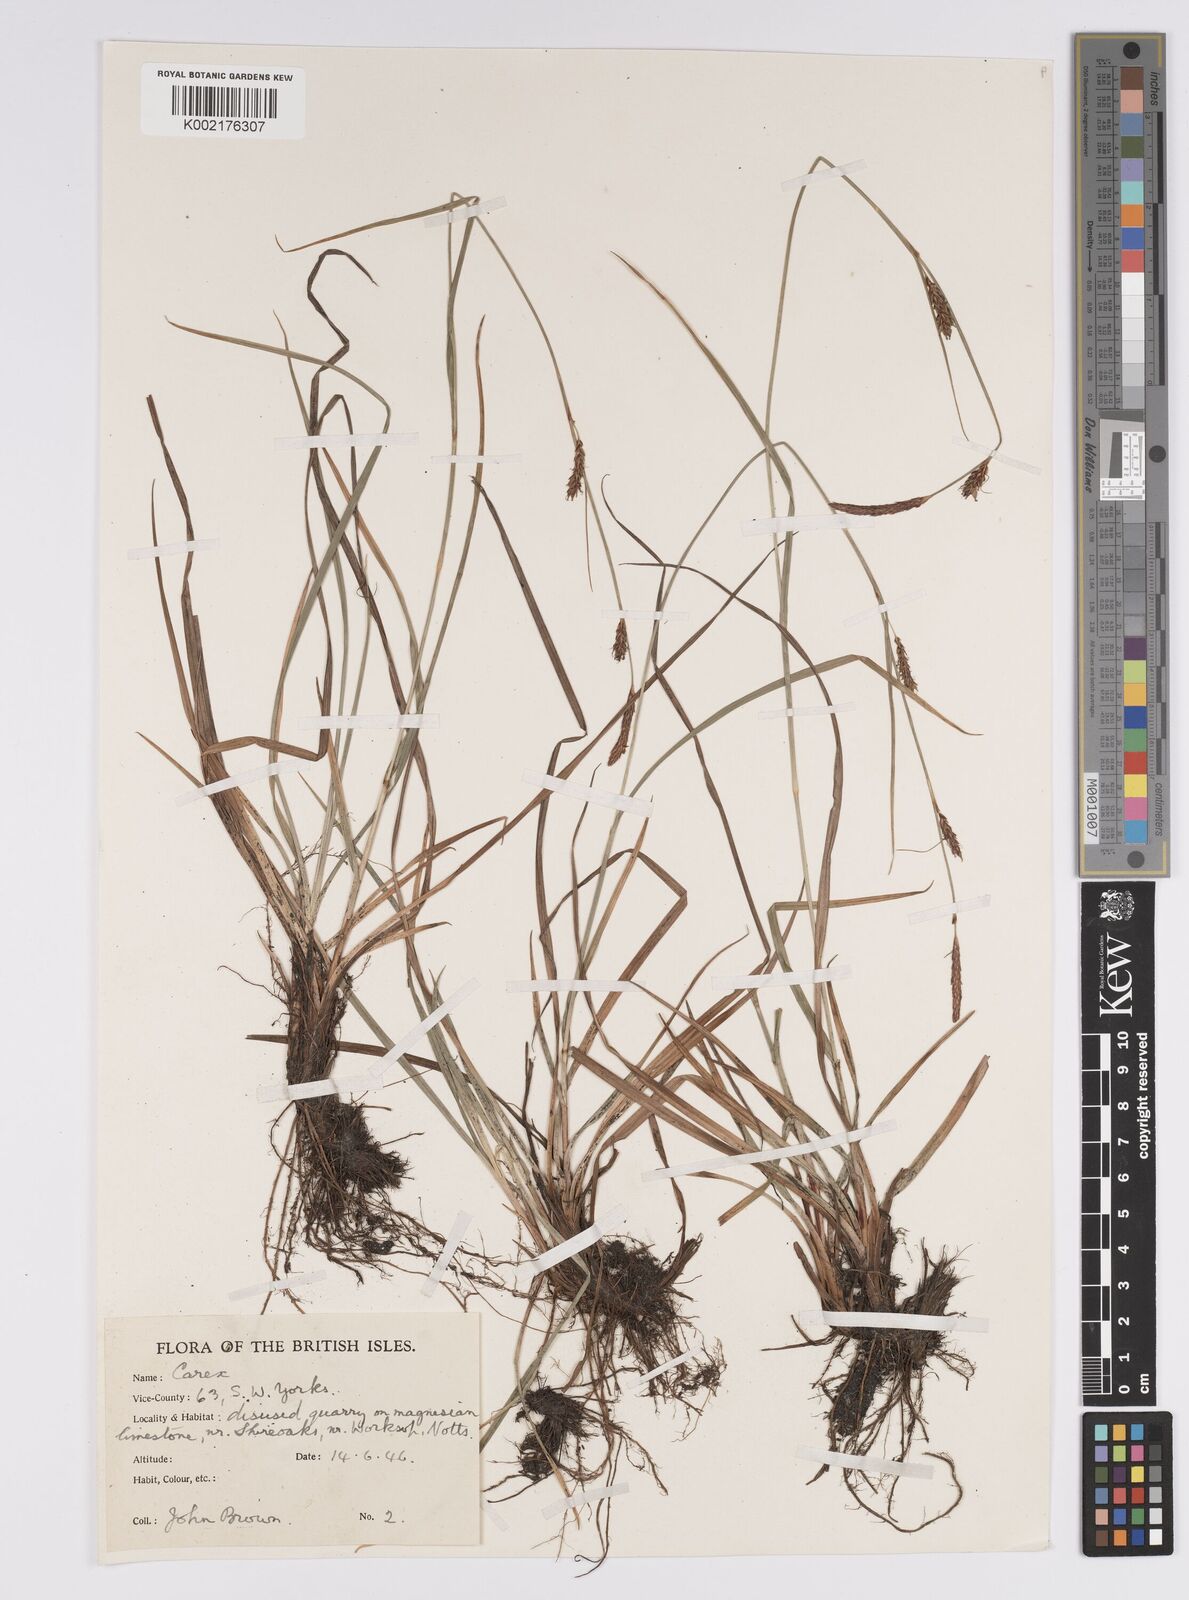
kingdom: Plantae
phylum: Tracheophyta
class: Liliopsida
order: Poales
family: Cyperaceae
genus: Carex
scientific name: Carex distans
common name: Distant sedge
